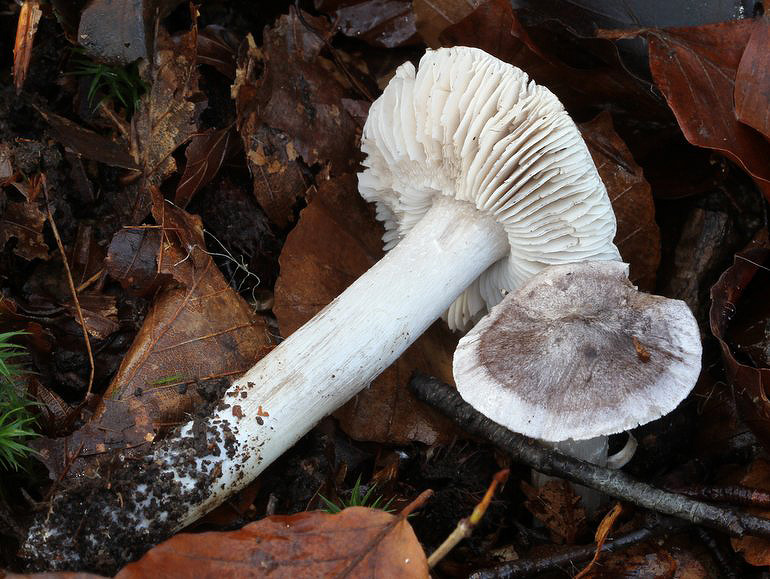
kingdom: Fungi
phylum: Basidiomycota
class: Agaricomycetes
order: Agaricales
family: Tricholomataceae
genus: Tricholoma
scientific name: Tricholoma sciodes
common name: stribet ridderhat
